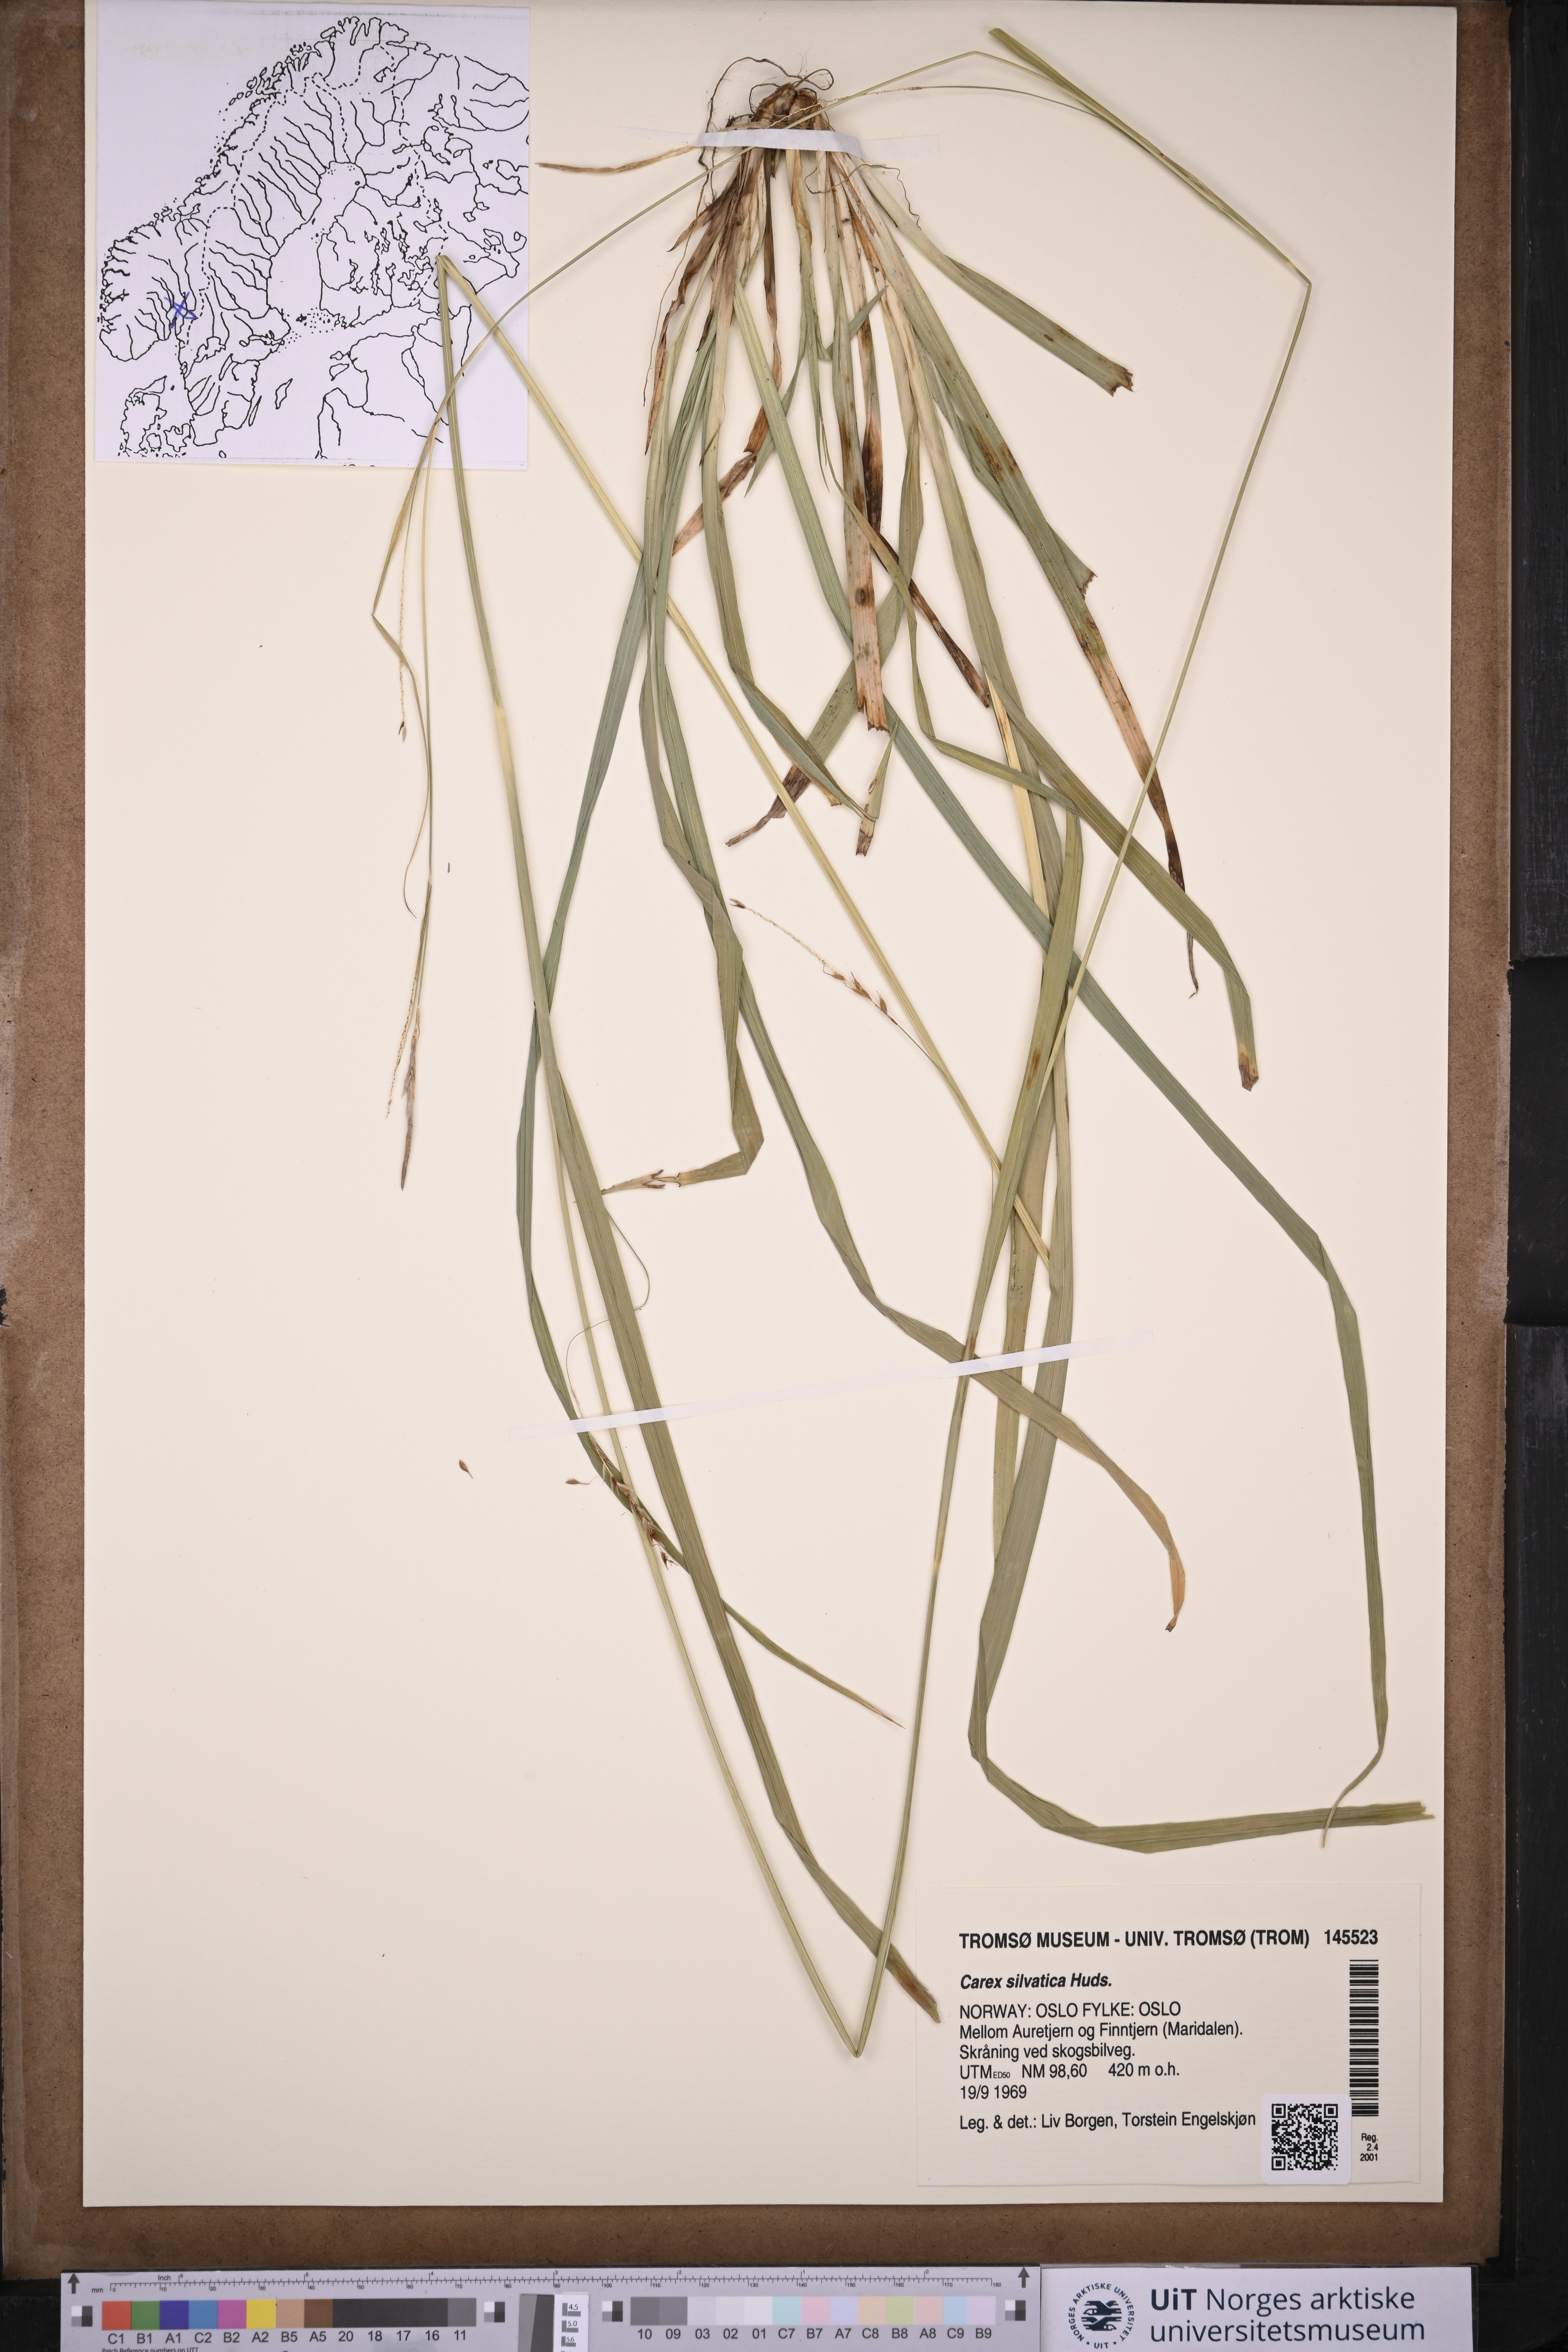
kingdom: Plantae
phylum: Tracheophyta
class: Liliopsida
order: Poales
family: Cyperaceae
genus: Carex
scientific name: Carex sylvatica
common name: Wood-sedge
